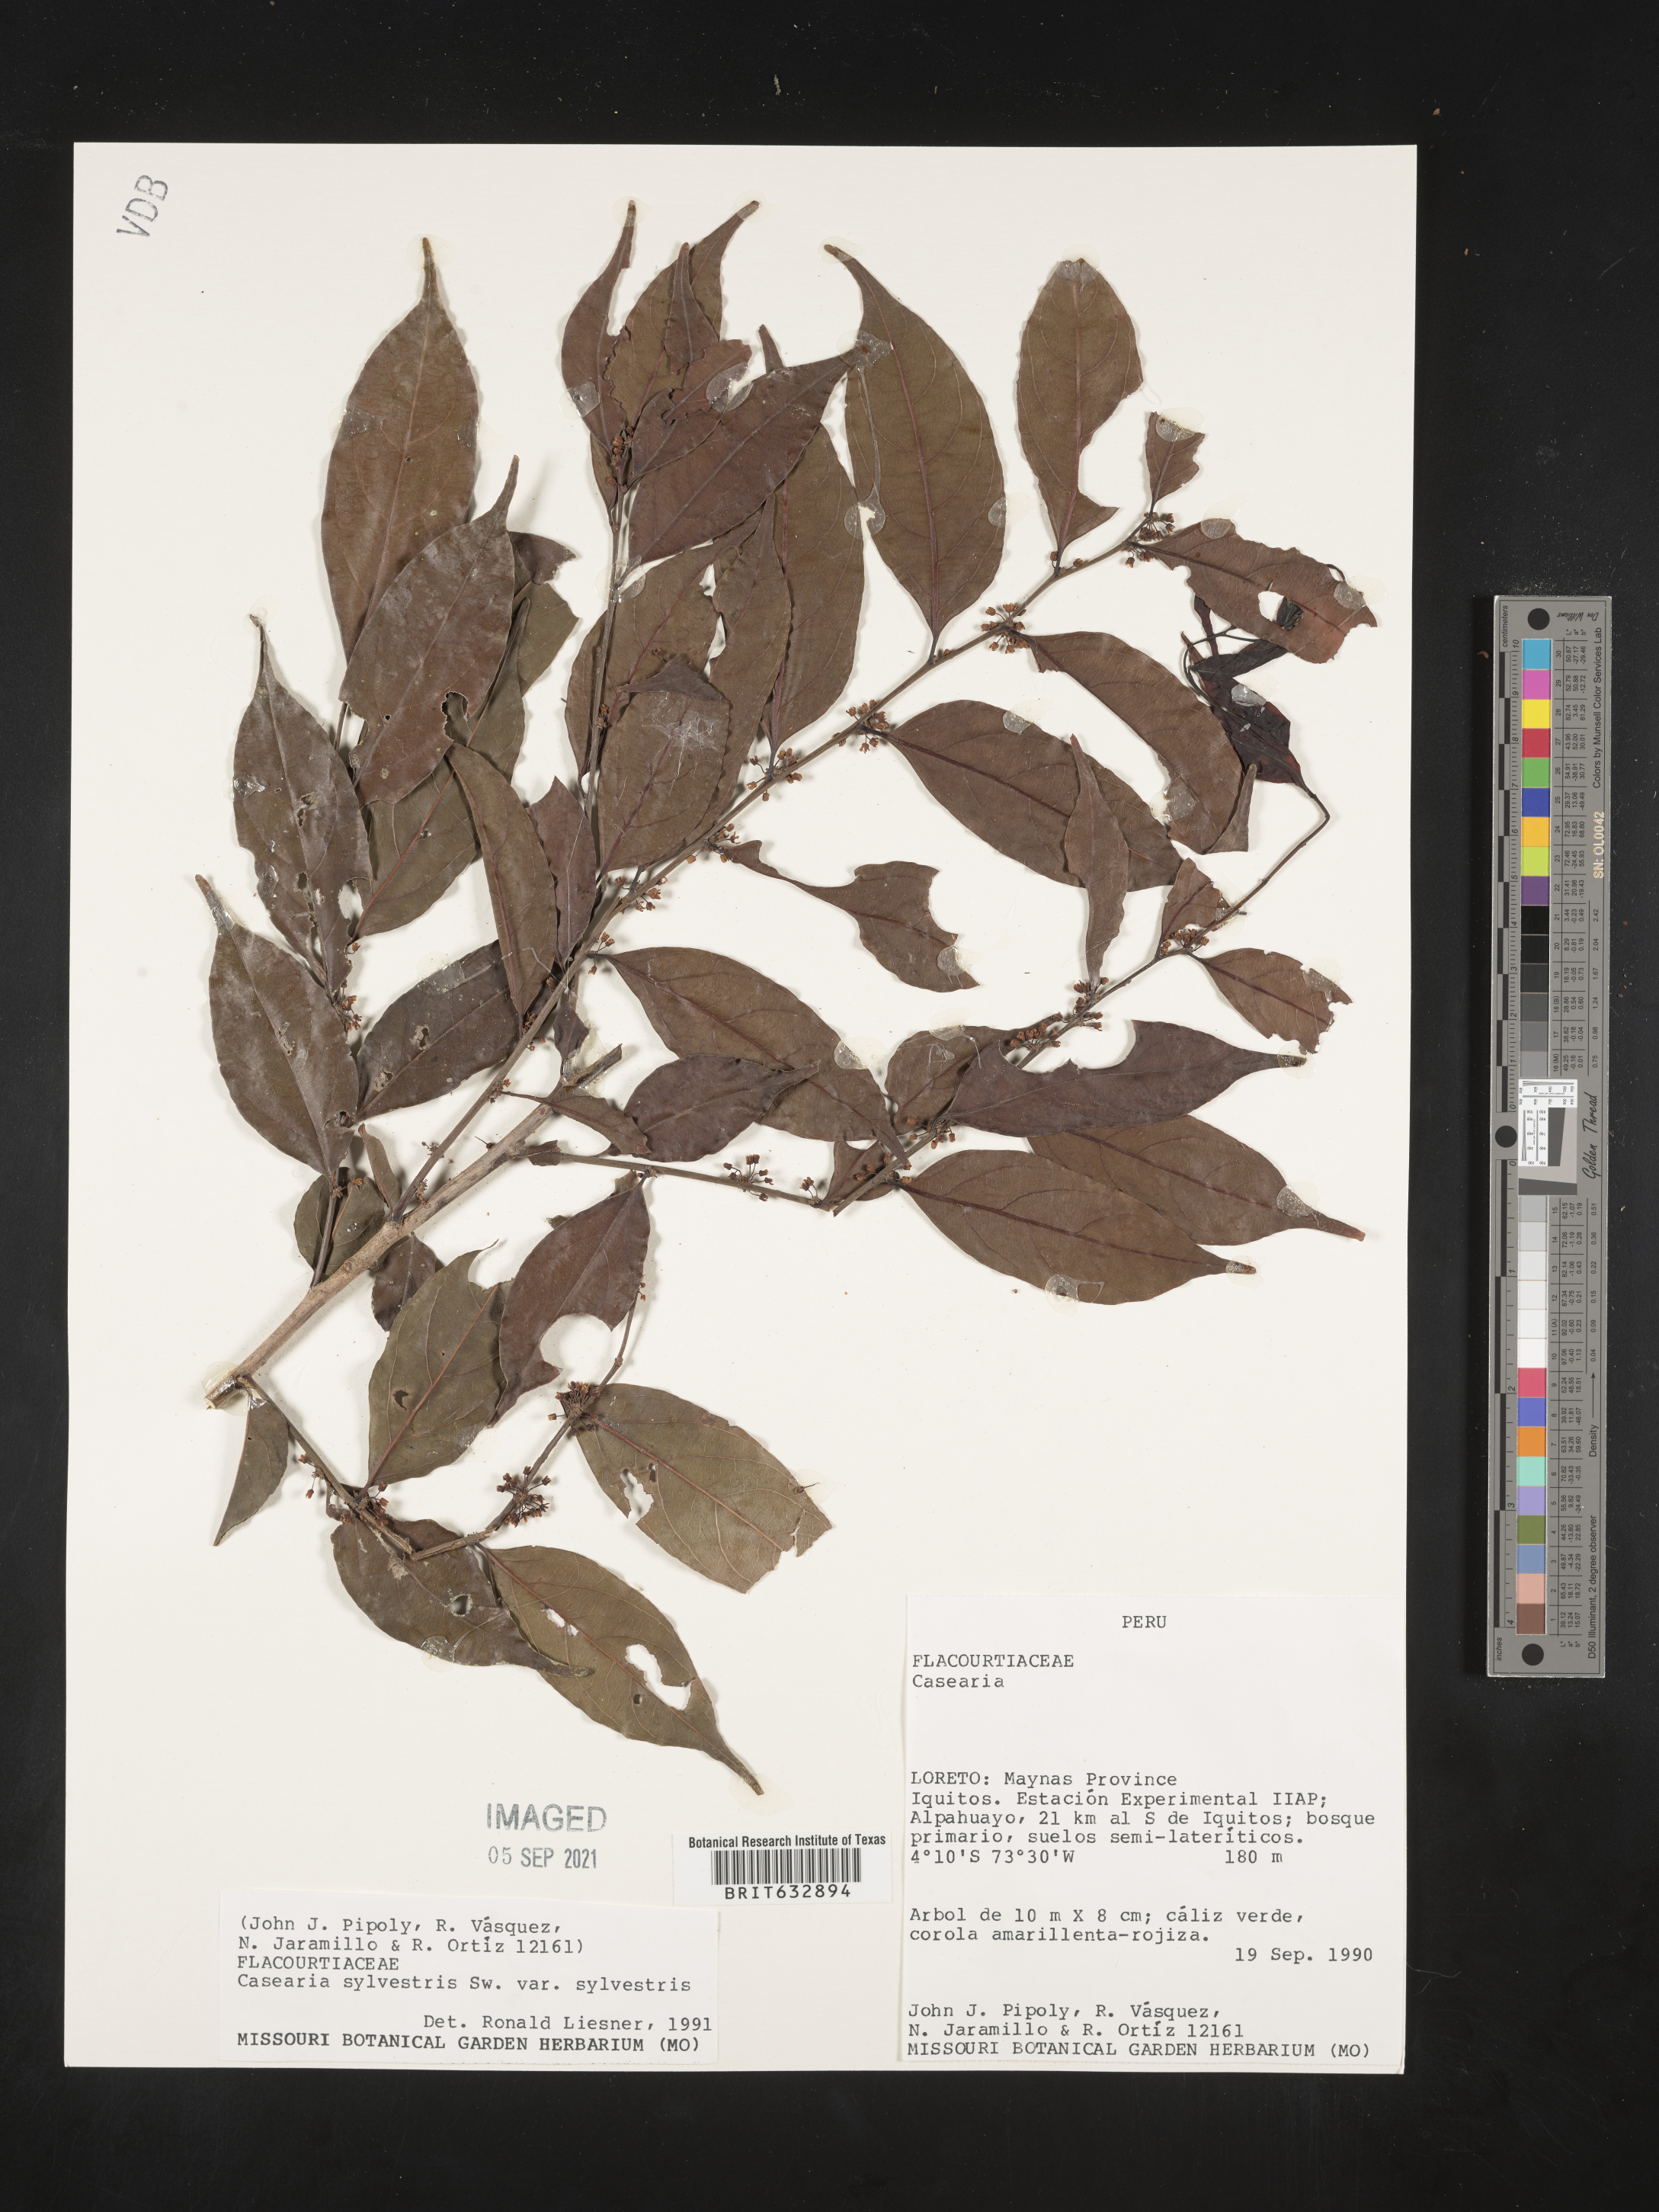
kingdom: Plantae
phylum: Tracheophyta
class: Magnoliopsida
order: Malpighiales
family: Salicaceae
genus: Casearia
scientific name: Casearia
